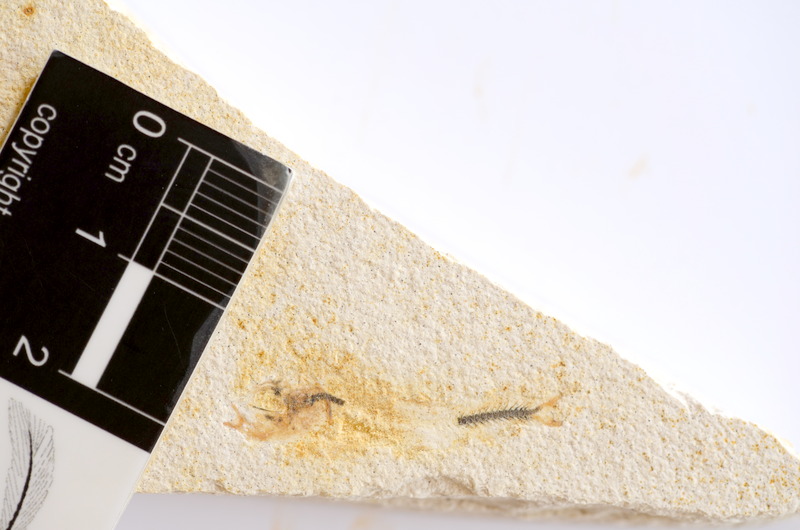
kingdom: Animalia
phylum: Chordata
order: Salmoniformes
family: Orthogonikleithridae
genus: Orthogonikleithrus
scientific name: Orthogonikleithrus hoelli
